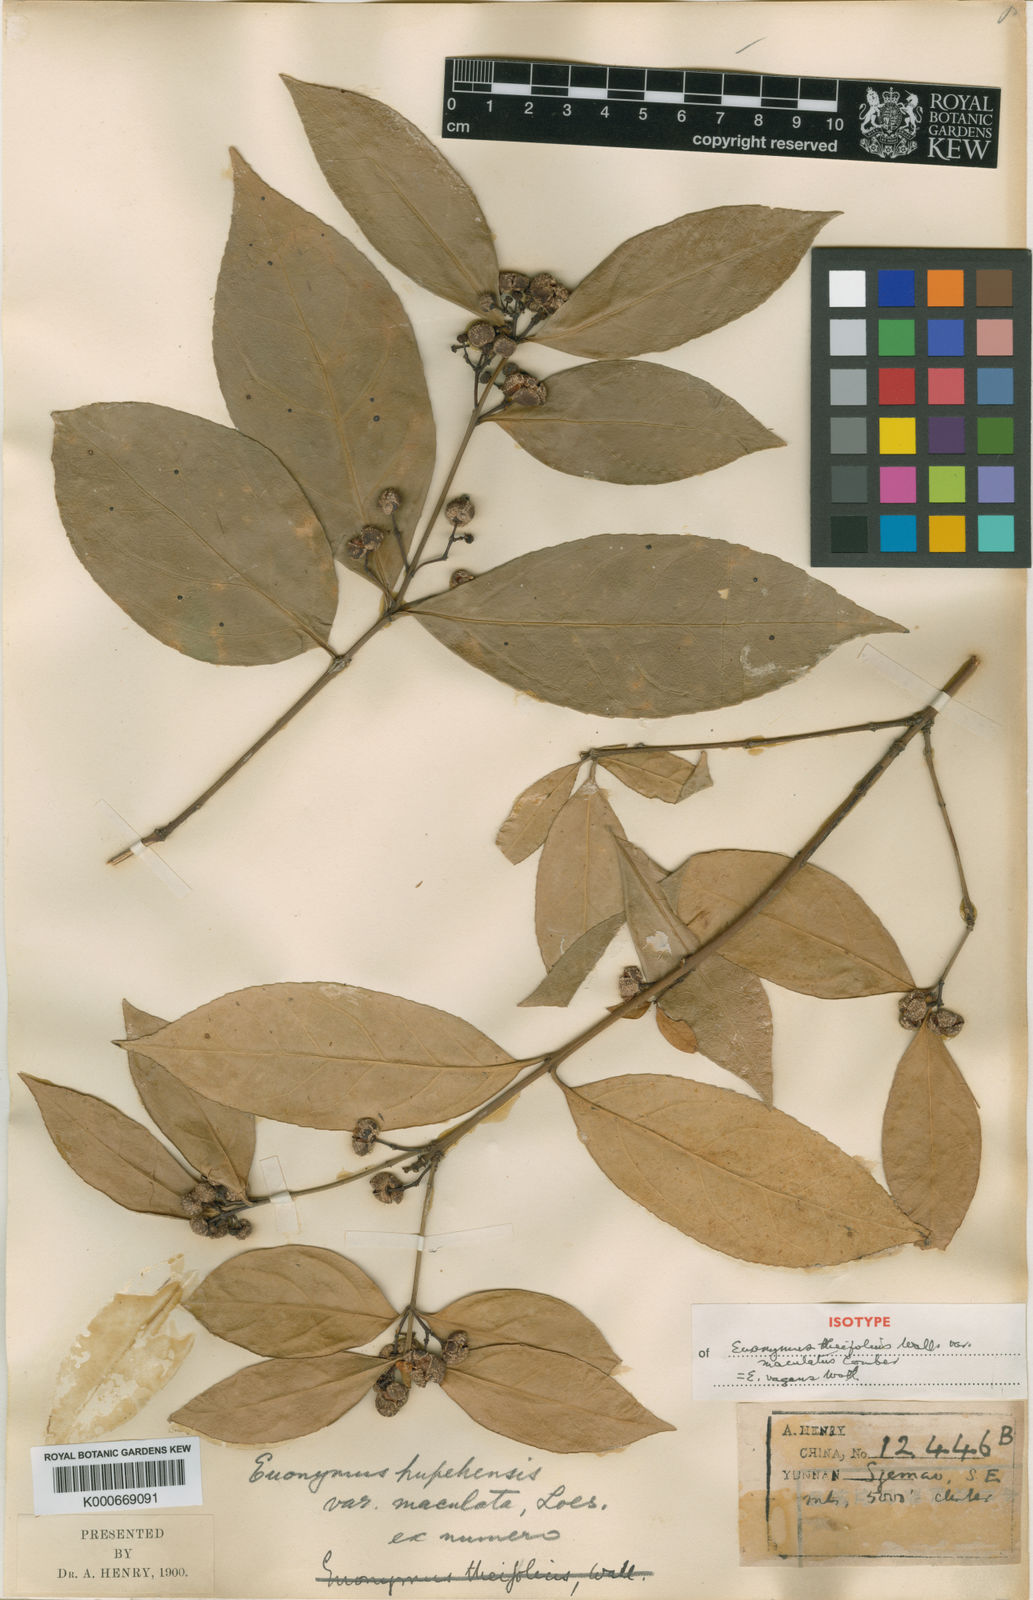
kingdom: Plantae
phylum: Tracheophyta
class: Magnoliopsida
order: Celastrales
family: Celastraceae
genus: Euonymus
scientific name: Euonymus vagans
